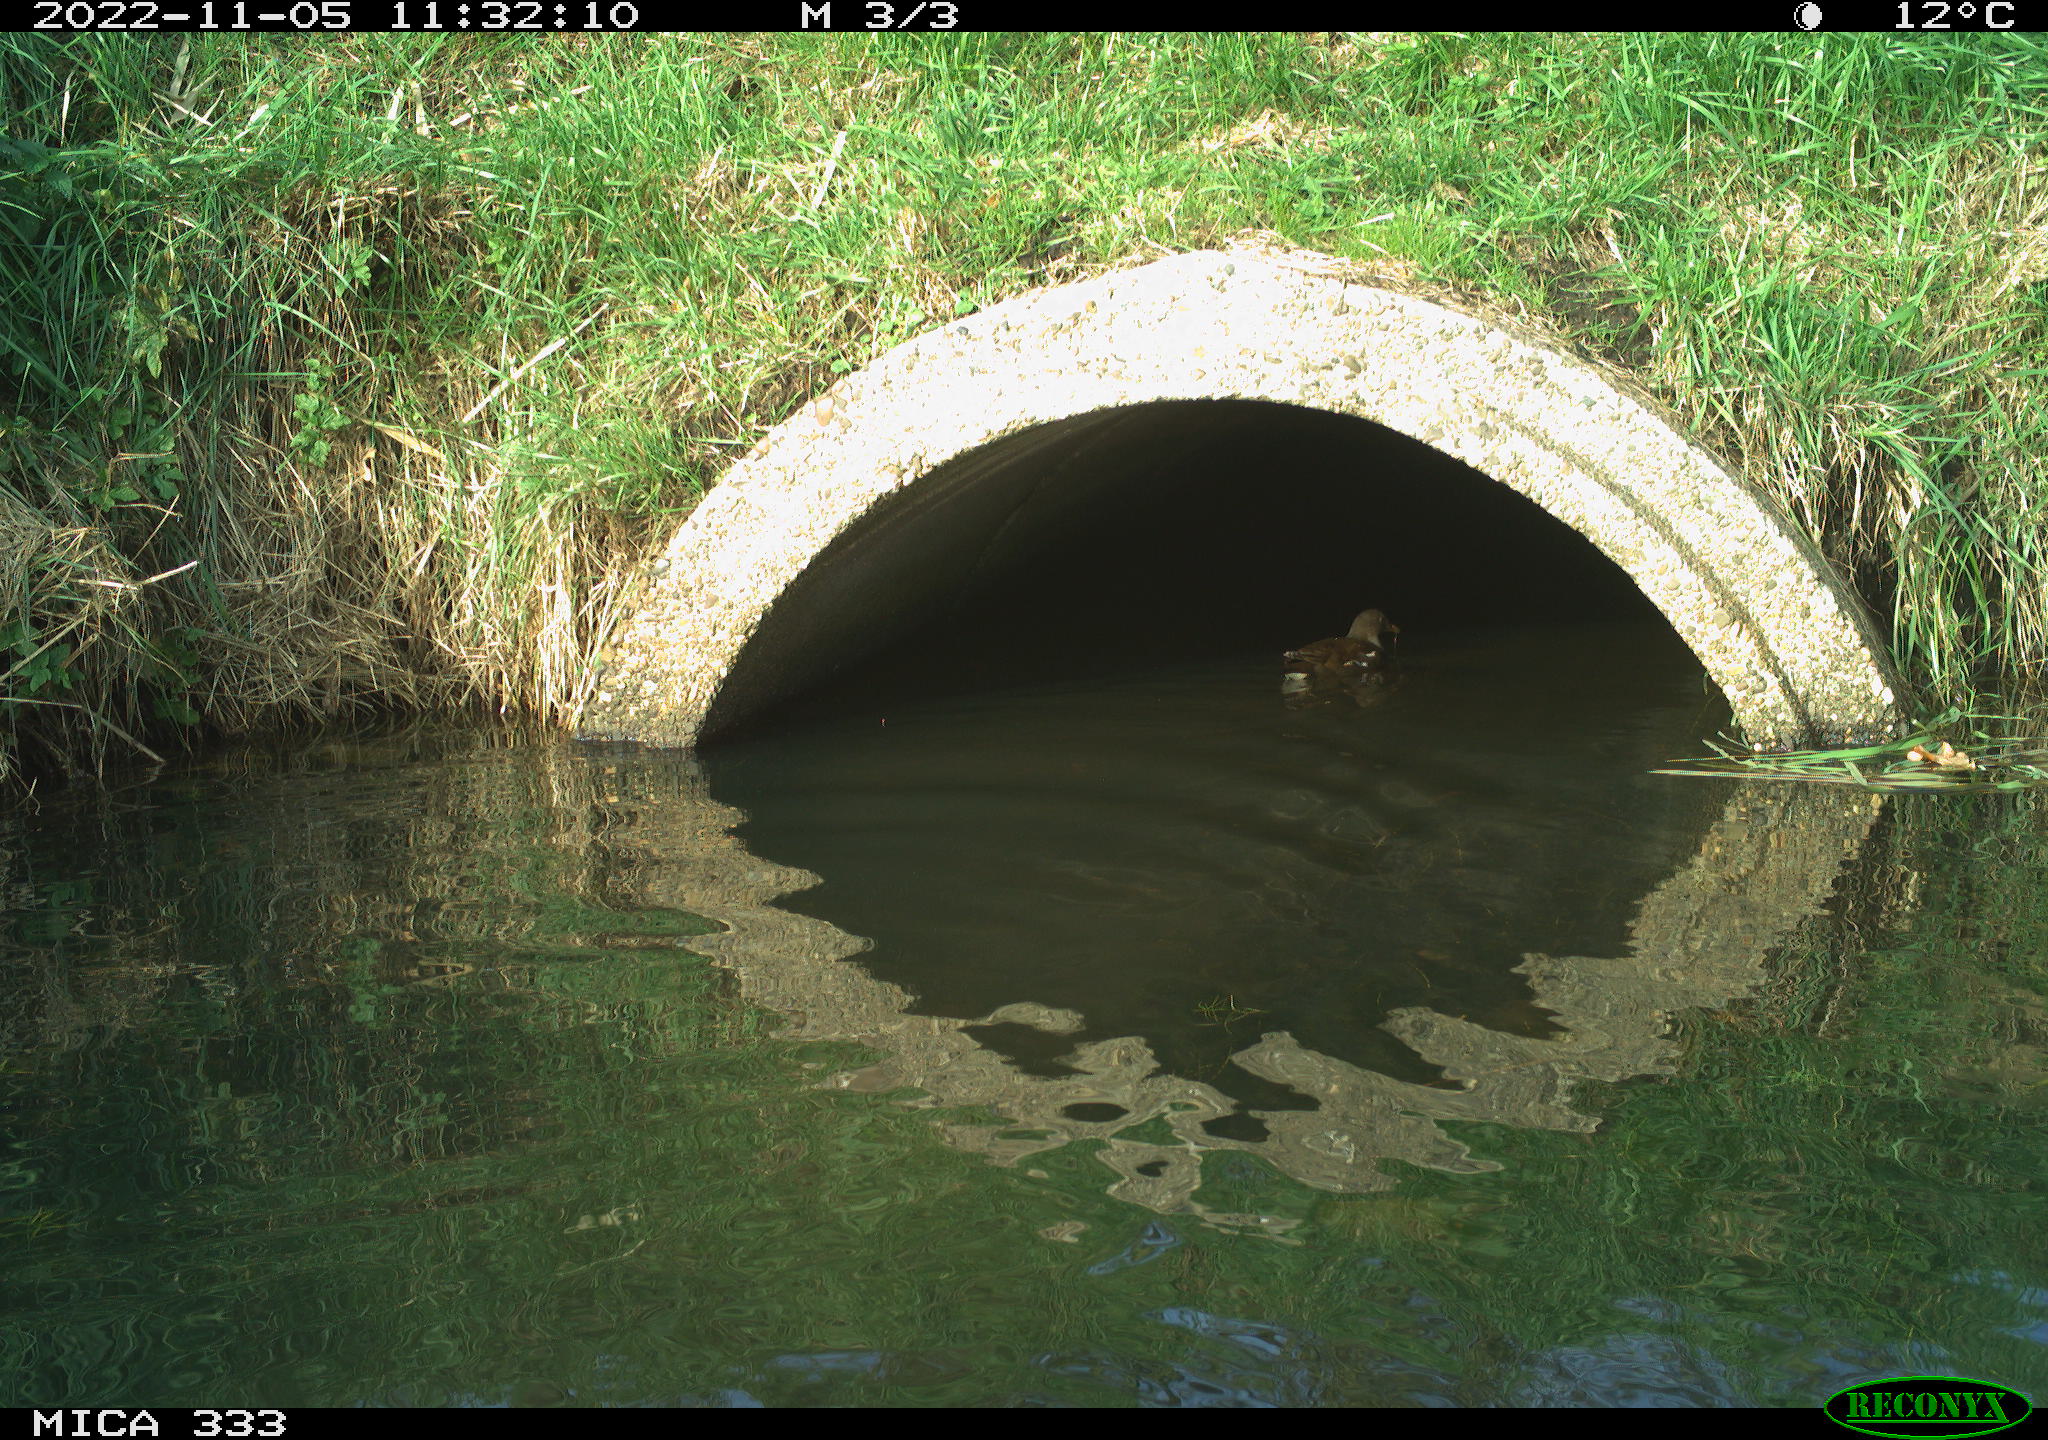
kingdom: Animalia
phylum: Chordata
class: Aves
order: Gruiformes
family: Rallidae
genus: Gallinula
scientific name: Gallinula chloropus
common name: Common moorhen
